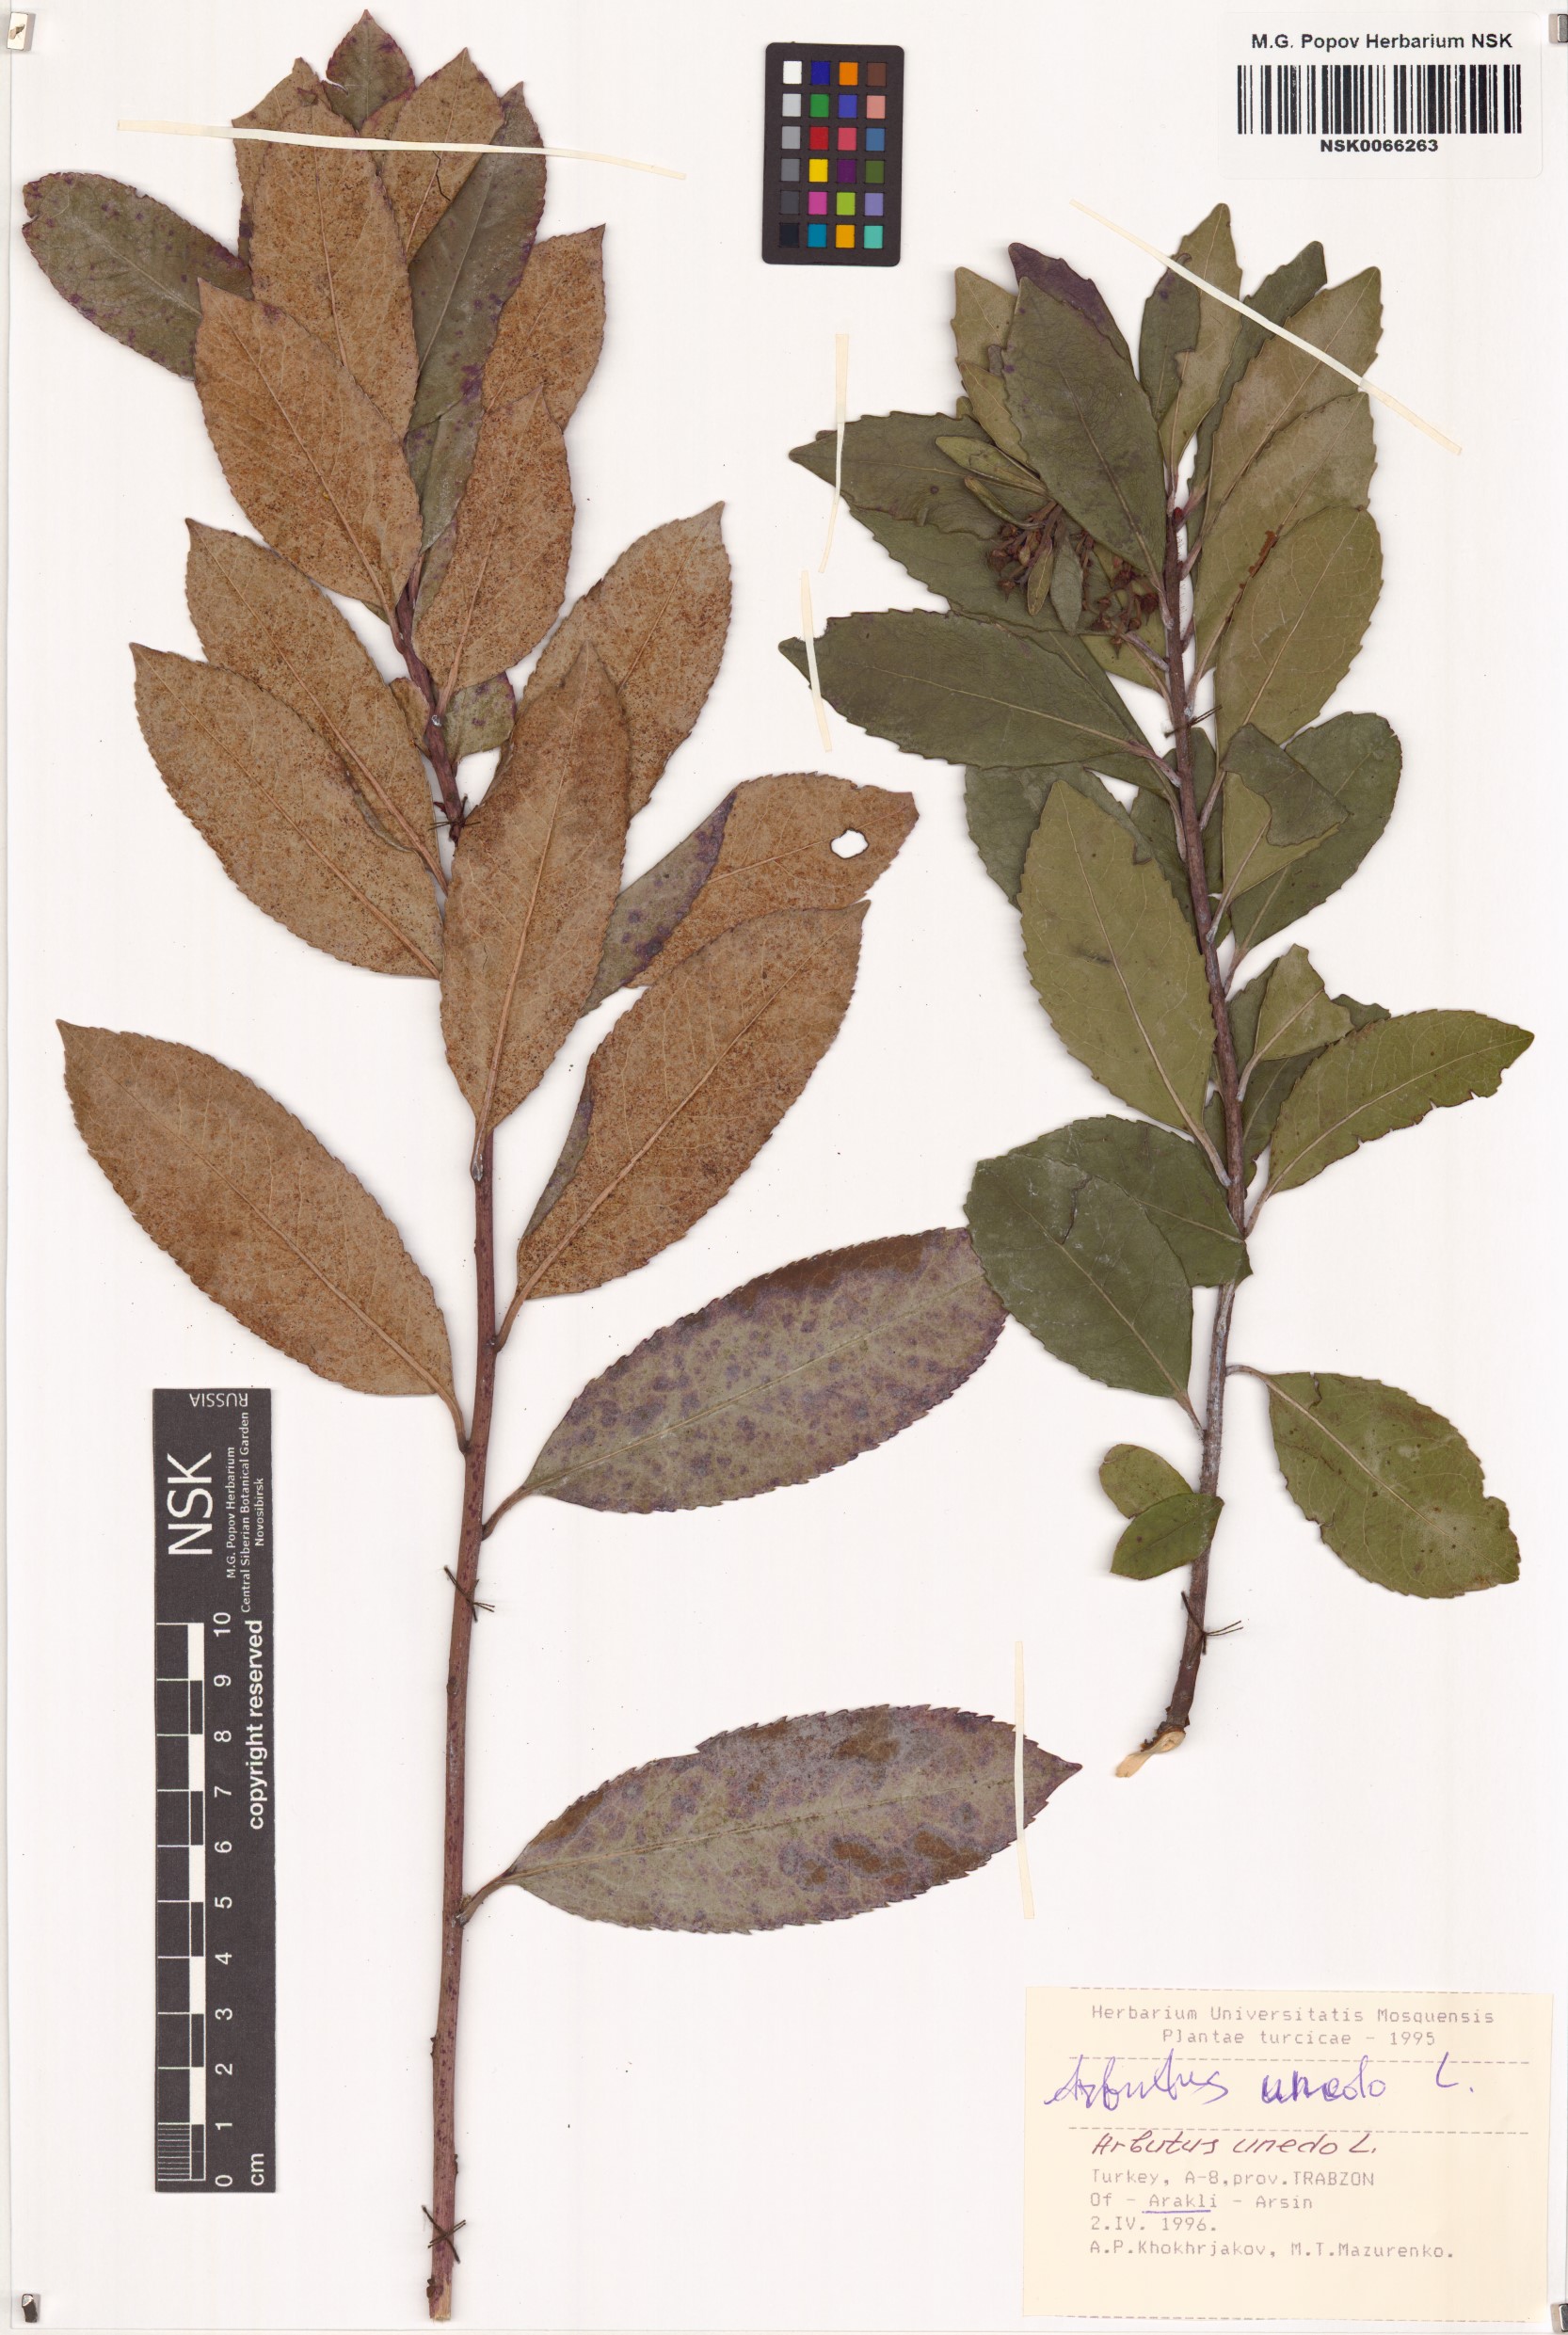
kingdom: Plantae
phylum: Tracheophyta
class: Magnoliopsida
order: Ericales
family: Ericaceae
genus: Arbutus
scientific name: Arbutus unedo
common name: Strawberry-tree
